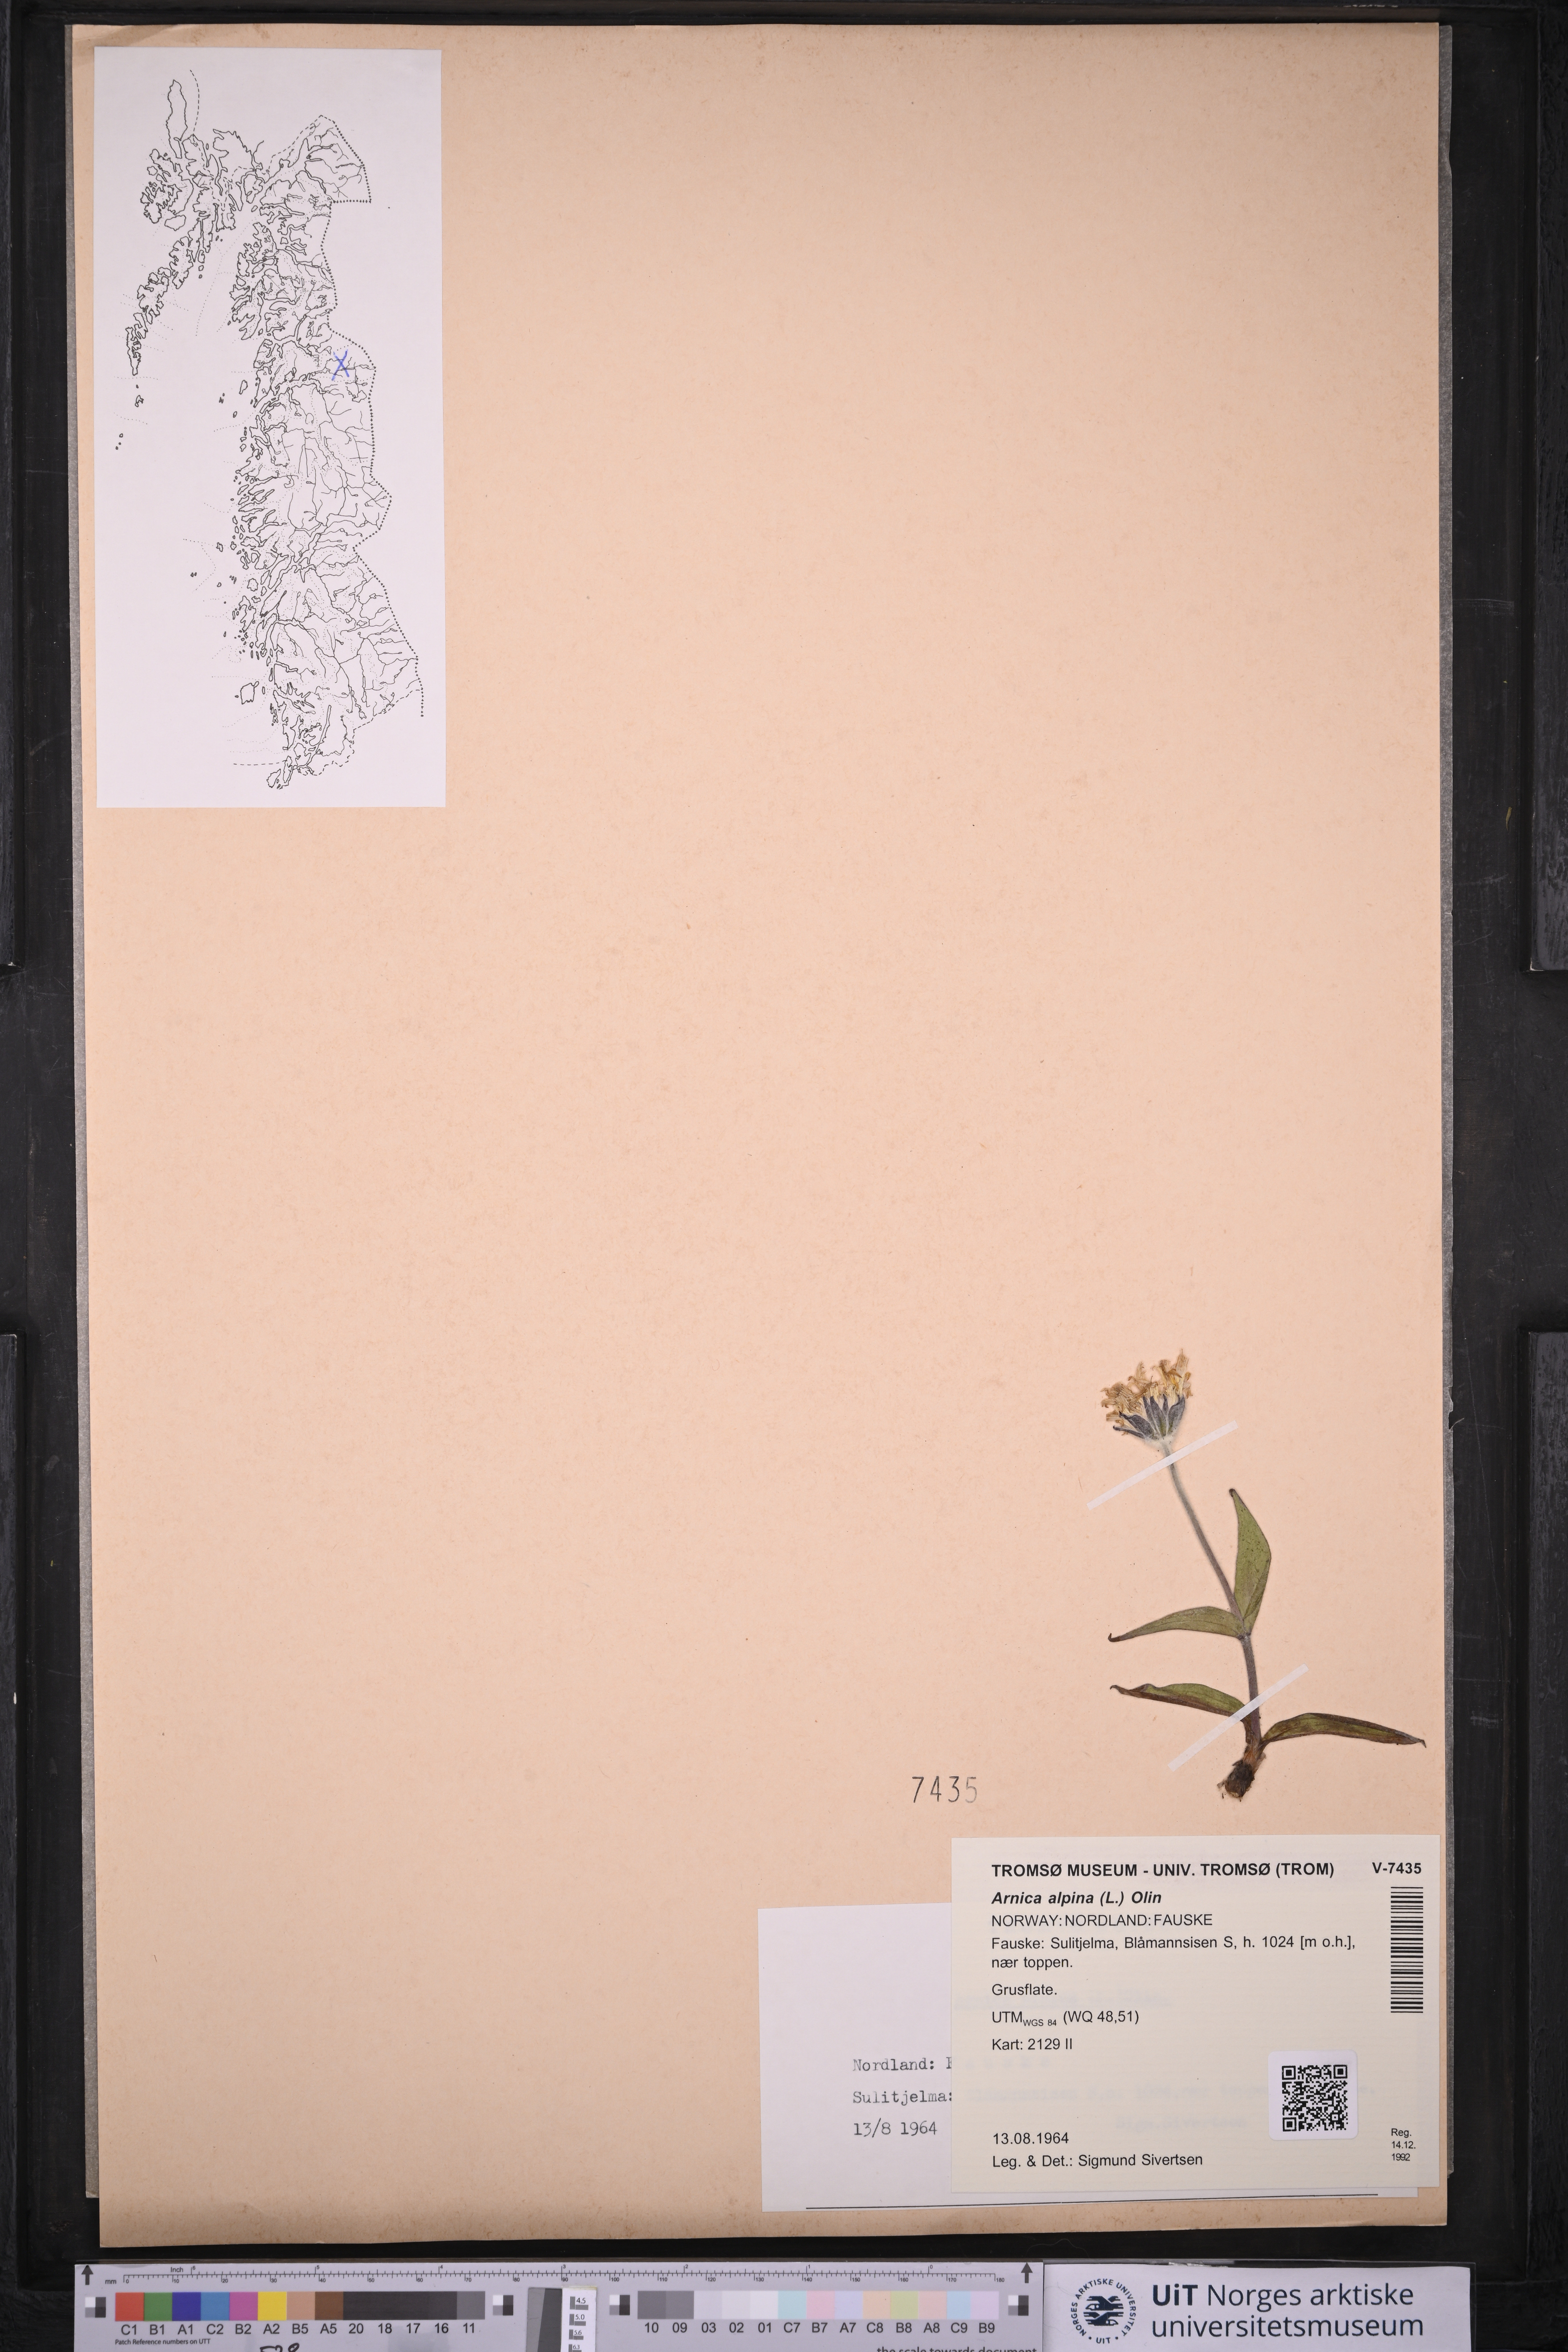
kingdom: Plantae
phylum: Tracheophyta
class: Magnoliopsida
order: Asterales
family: Asteraceae
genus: Arnica
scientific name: Arnica angustifolia
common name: Arctic arnica
